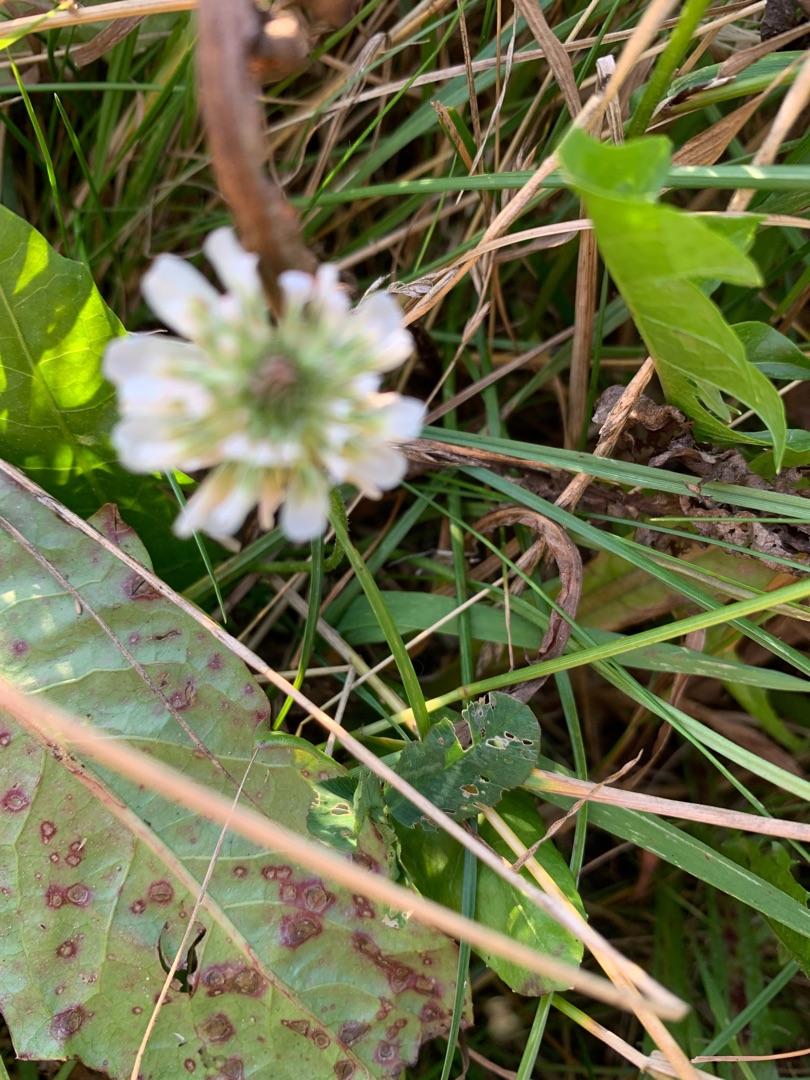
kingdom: Plantae
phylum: Tracheophyta
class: Magnoliopsida
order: Fabales
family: Fabaceae
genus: Trifolium
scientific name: Trifolium repens
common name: Hvid-kløver
